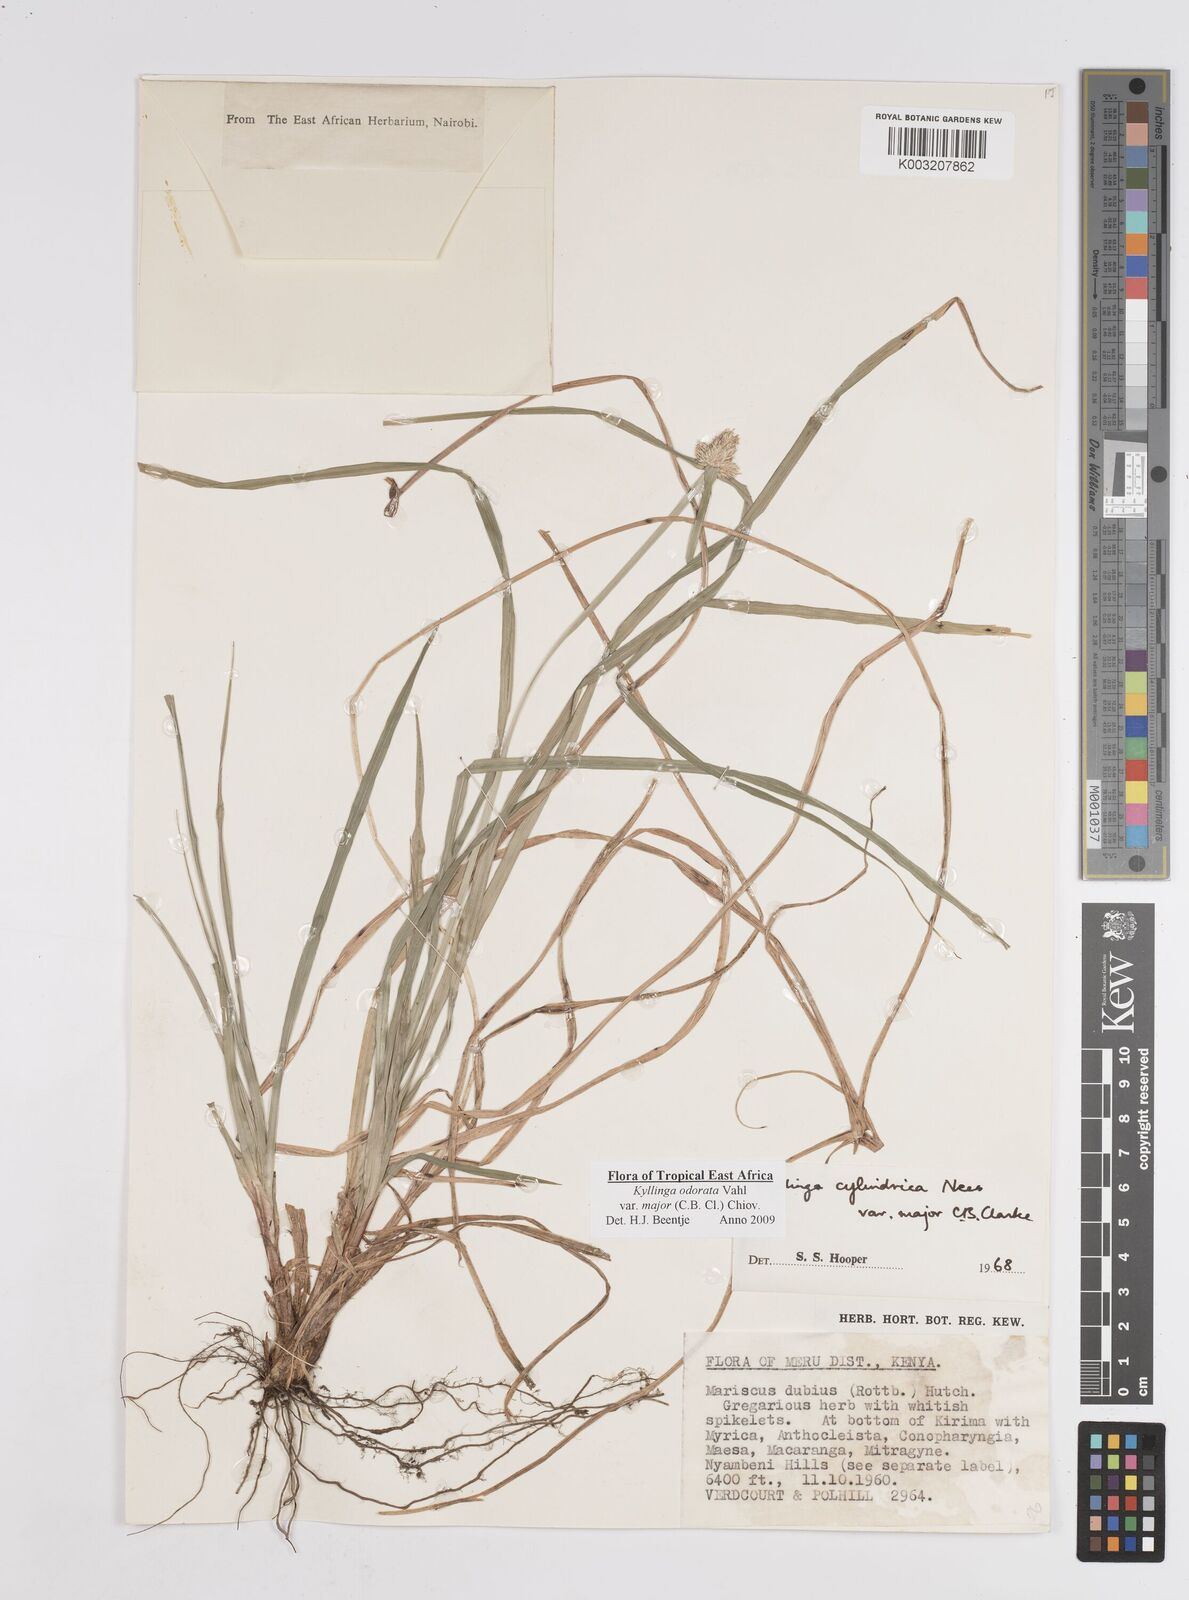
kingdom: Plantae
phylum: Tracheophyta
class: Liliopsida
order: Poales
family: Cyperaceae
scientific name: Cyperaceae
